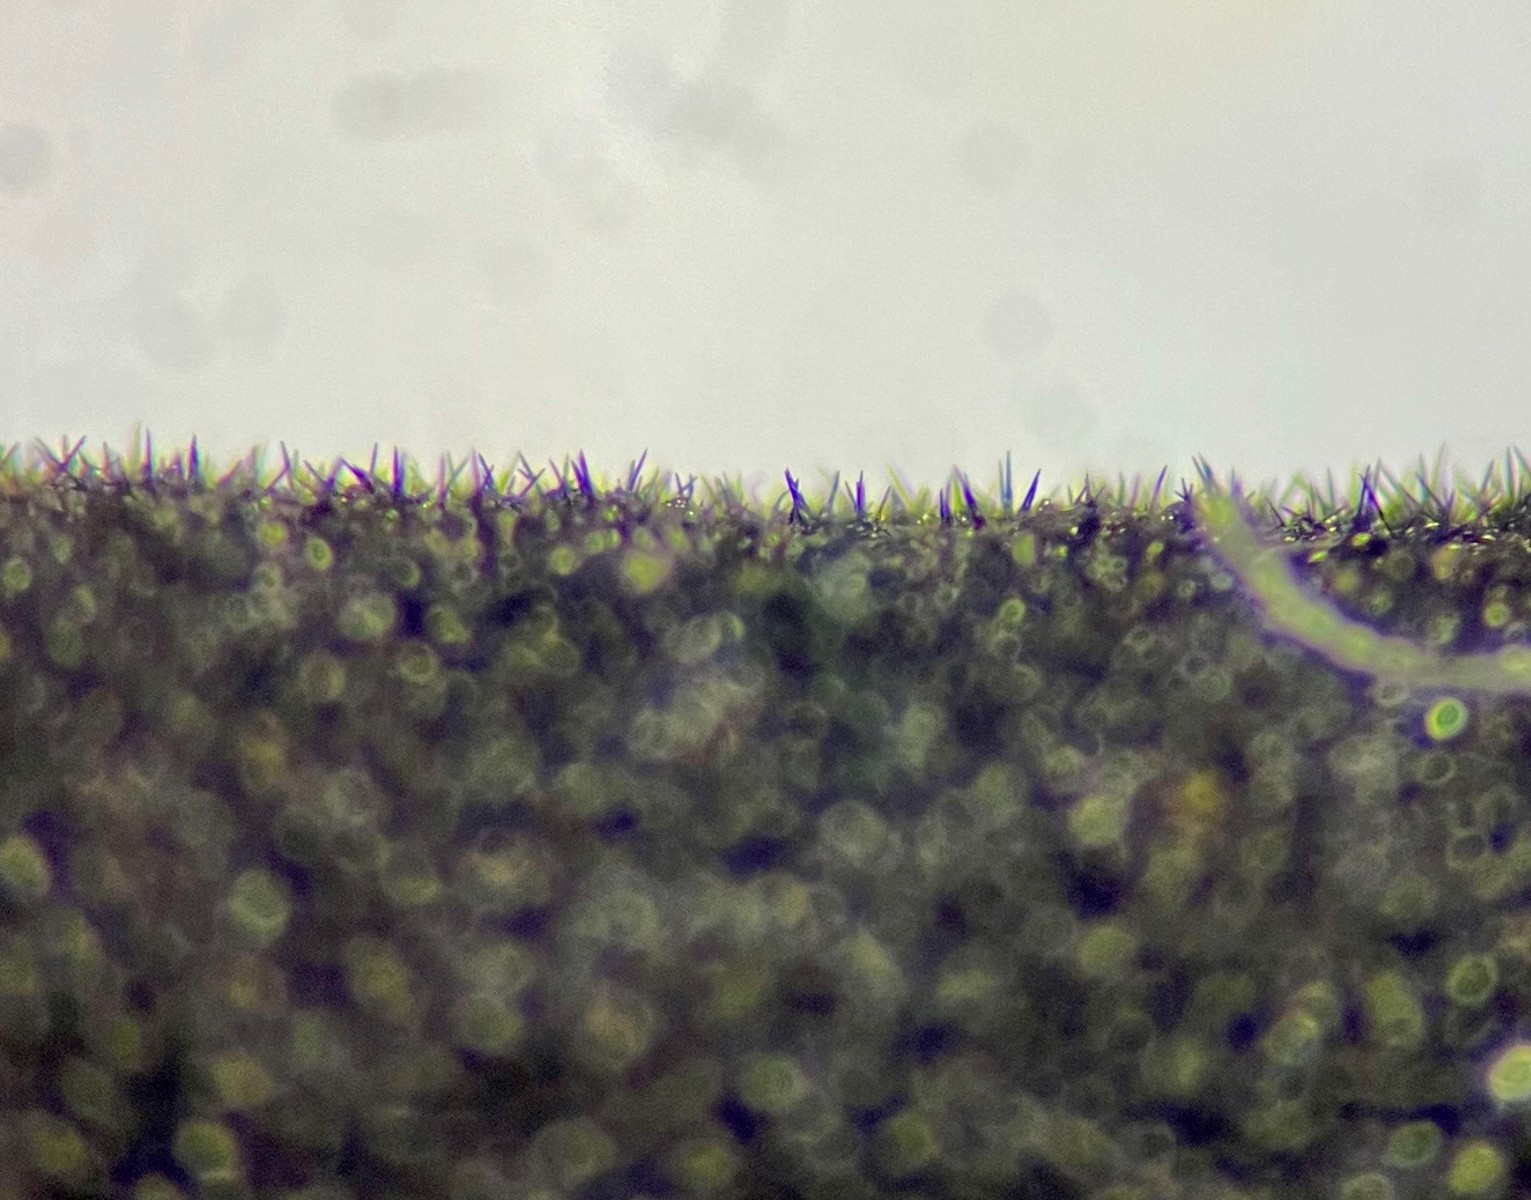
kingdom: Fungi
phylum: Ascomycota
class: Geoglossomycetes
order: Geoglossales
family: Geoglossaceae
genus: Trichoglossum
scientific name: Trichoglossum hirsutum
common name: håret jordtunge
